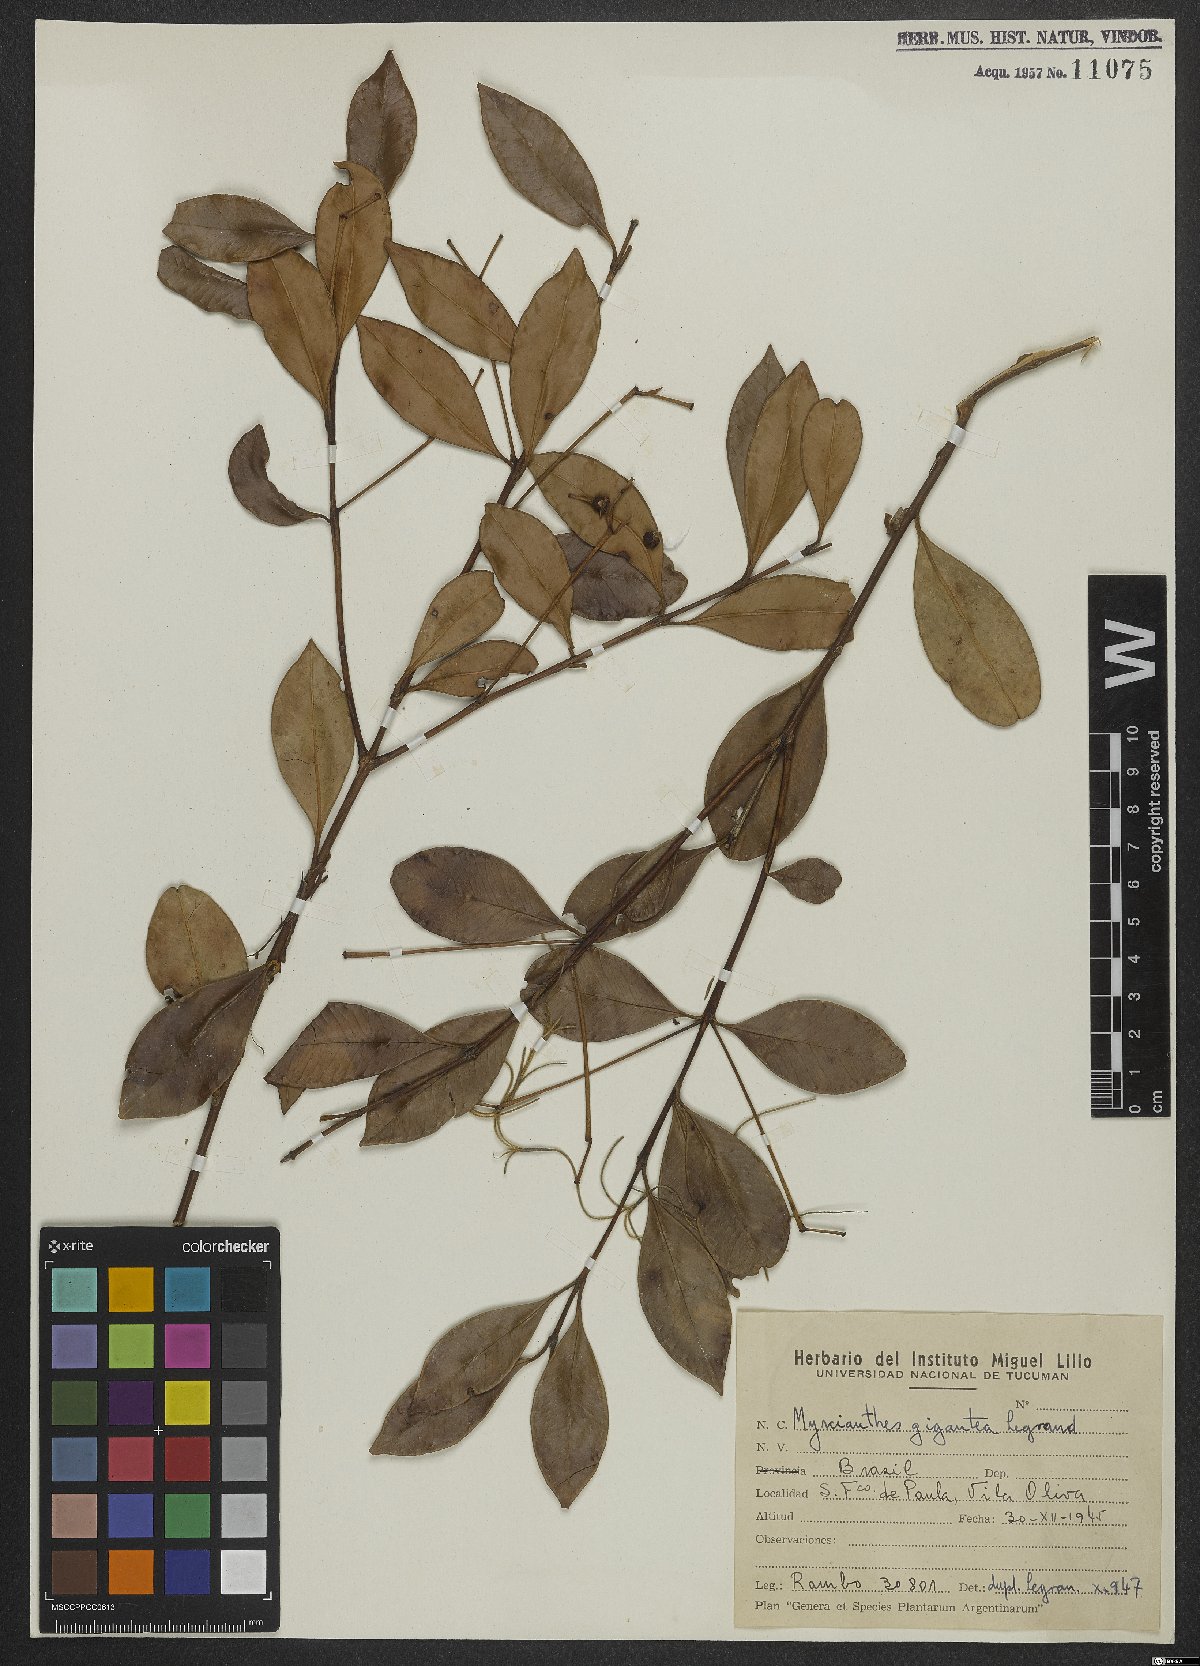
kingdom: Plantae
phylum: Tracheophyta
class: Magnoliopsida
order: Myrtales
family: Myrtaceae
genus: Myrcianthes
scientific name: Myrcianthes gigantea
